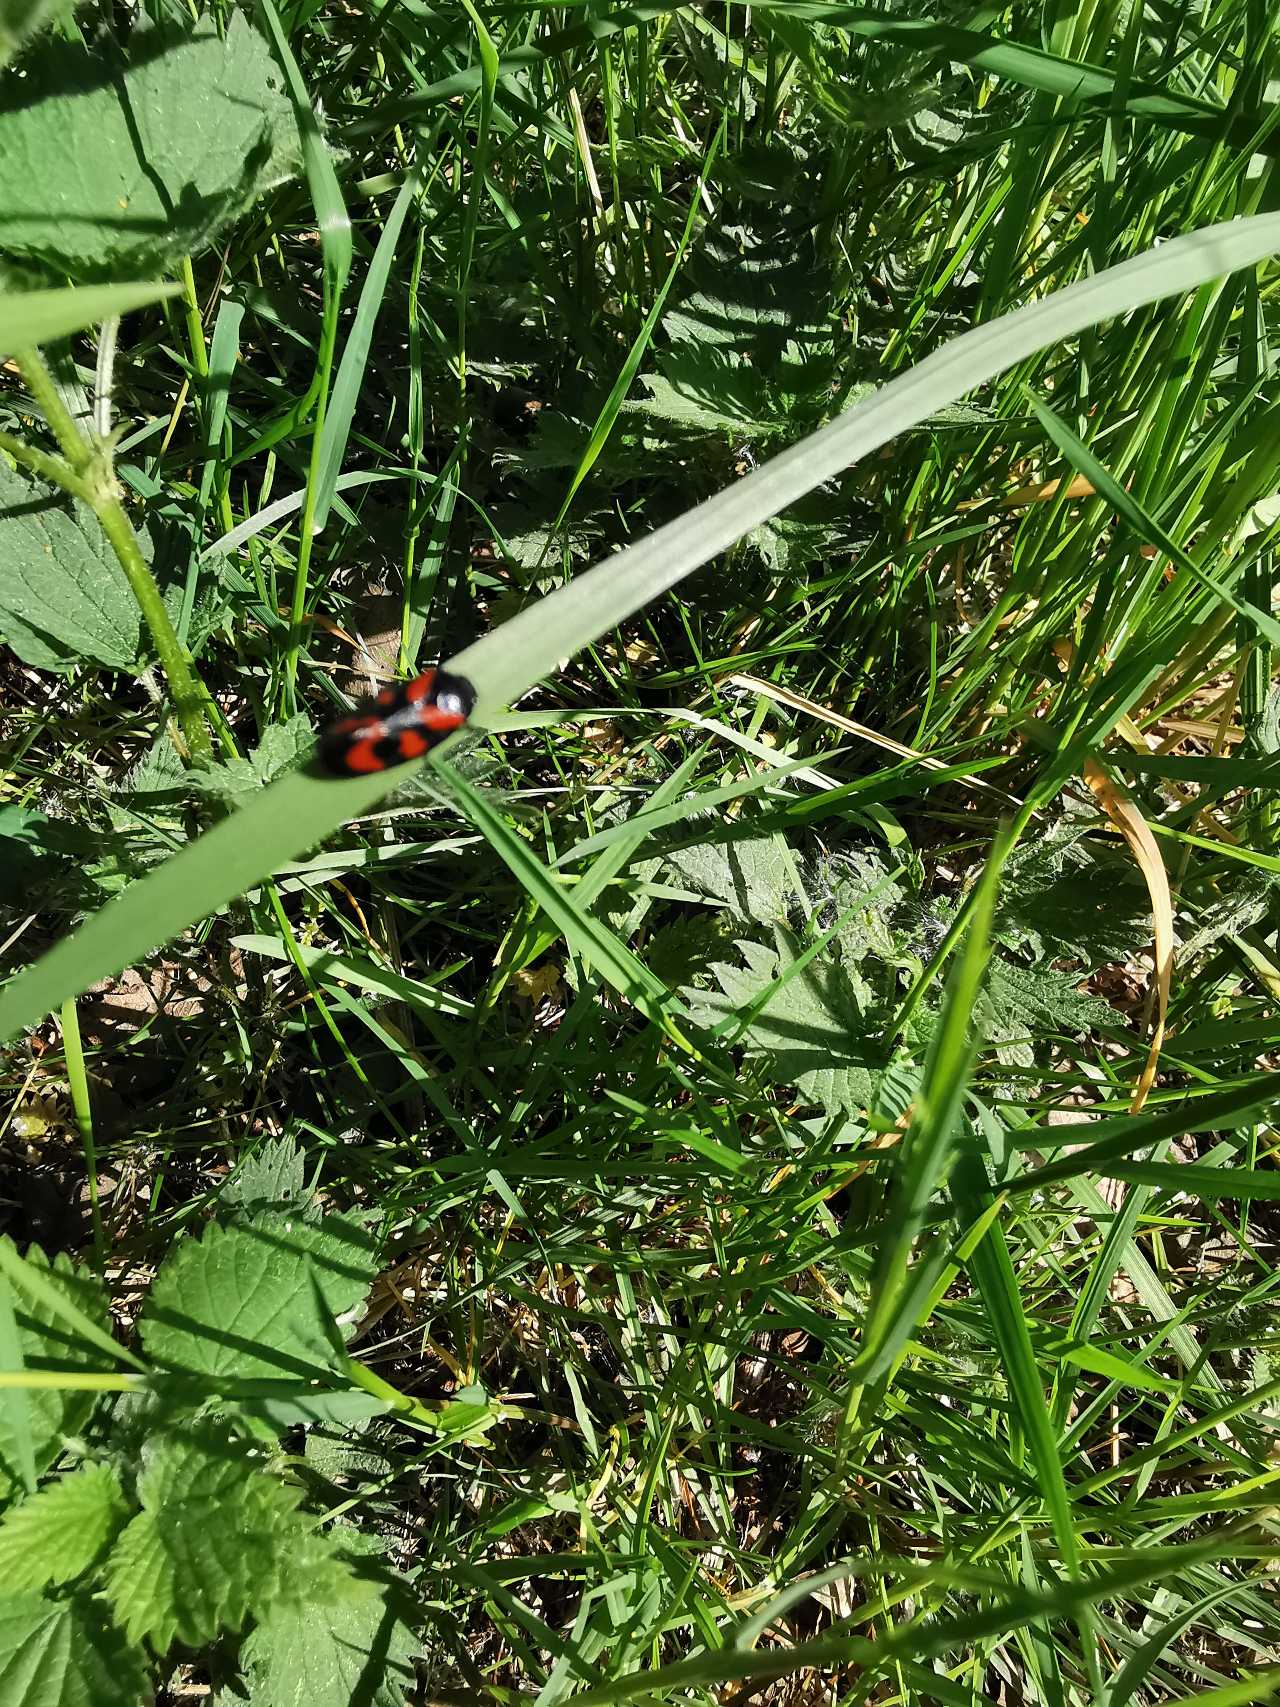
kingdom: Animalia
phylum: Arthropoda
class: Insecta
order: Hemiptera
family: Cercopidae
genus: Cercopis
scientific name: Cercopis vulnerata
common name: Blodcikade
